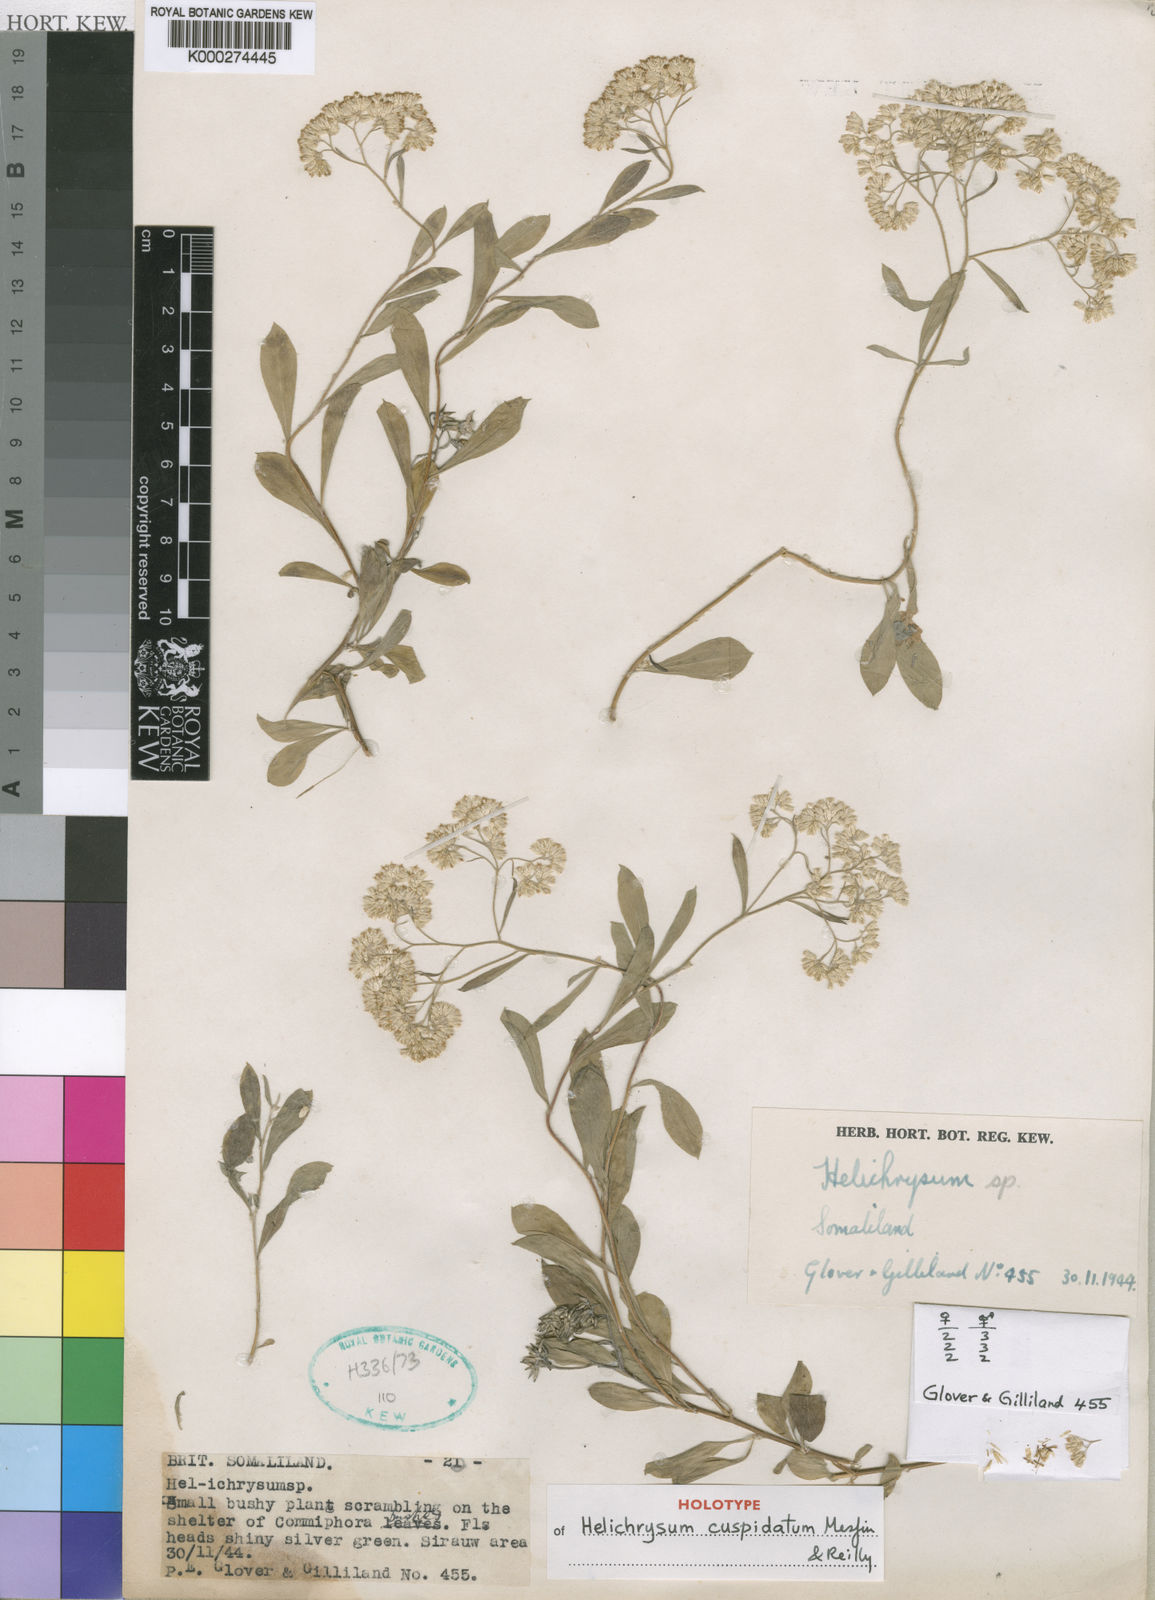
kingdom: Plantae
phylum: Tracheophyta
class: Magnoliopsida
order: Asterales
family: Asteraceae
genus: Helichrysum
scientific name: Helichrysum cuspidatum
